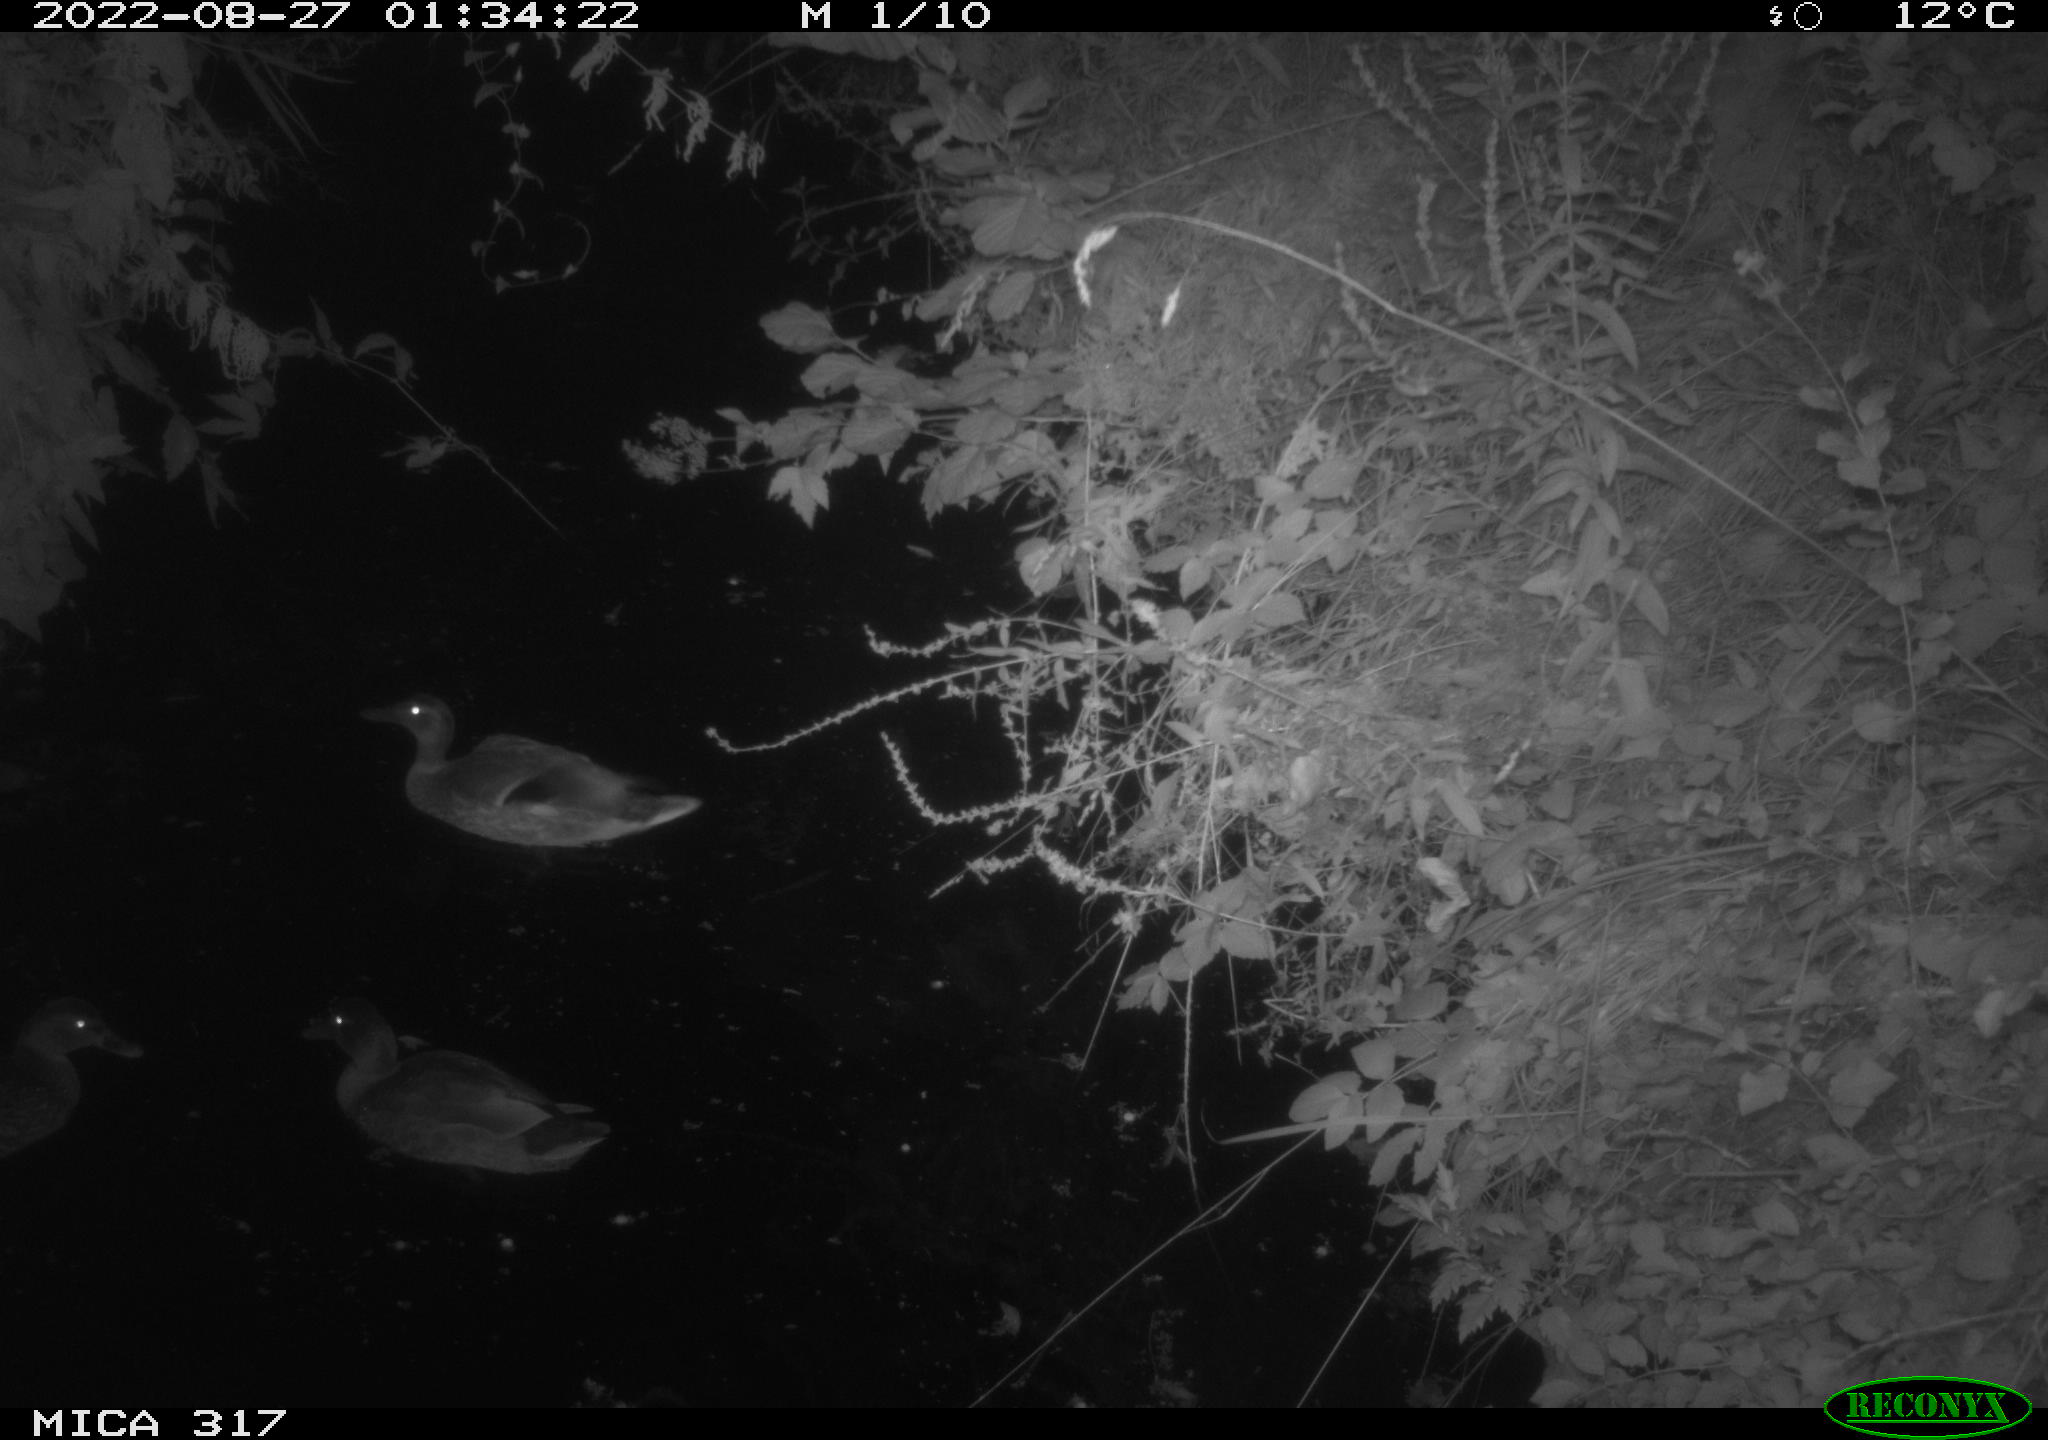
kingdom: Animalia
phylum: Chordata
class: Aves
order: Anseriformes
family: Anatidae
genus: Anas
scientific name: Anas
